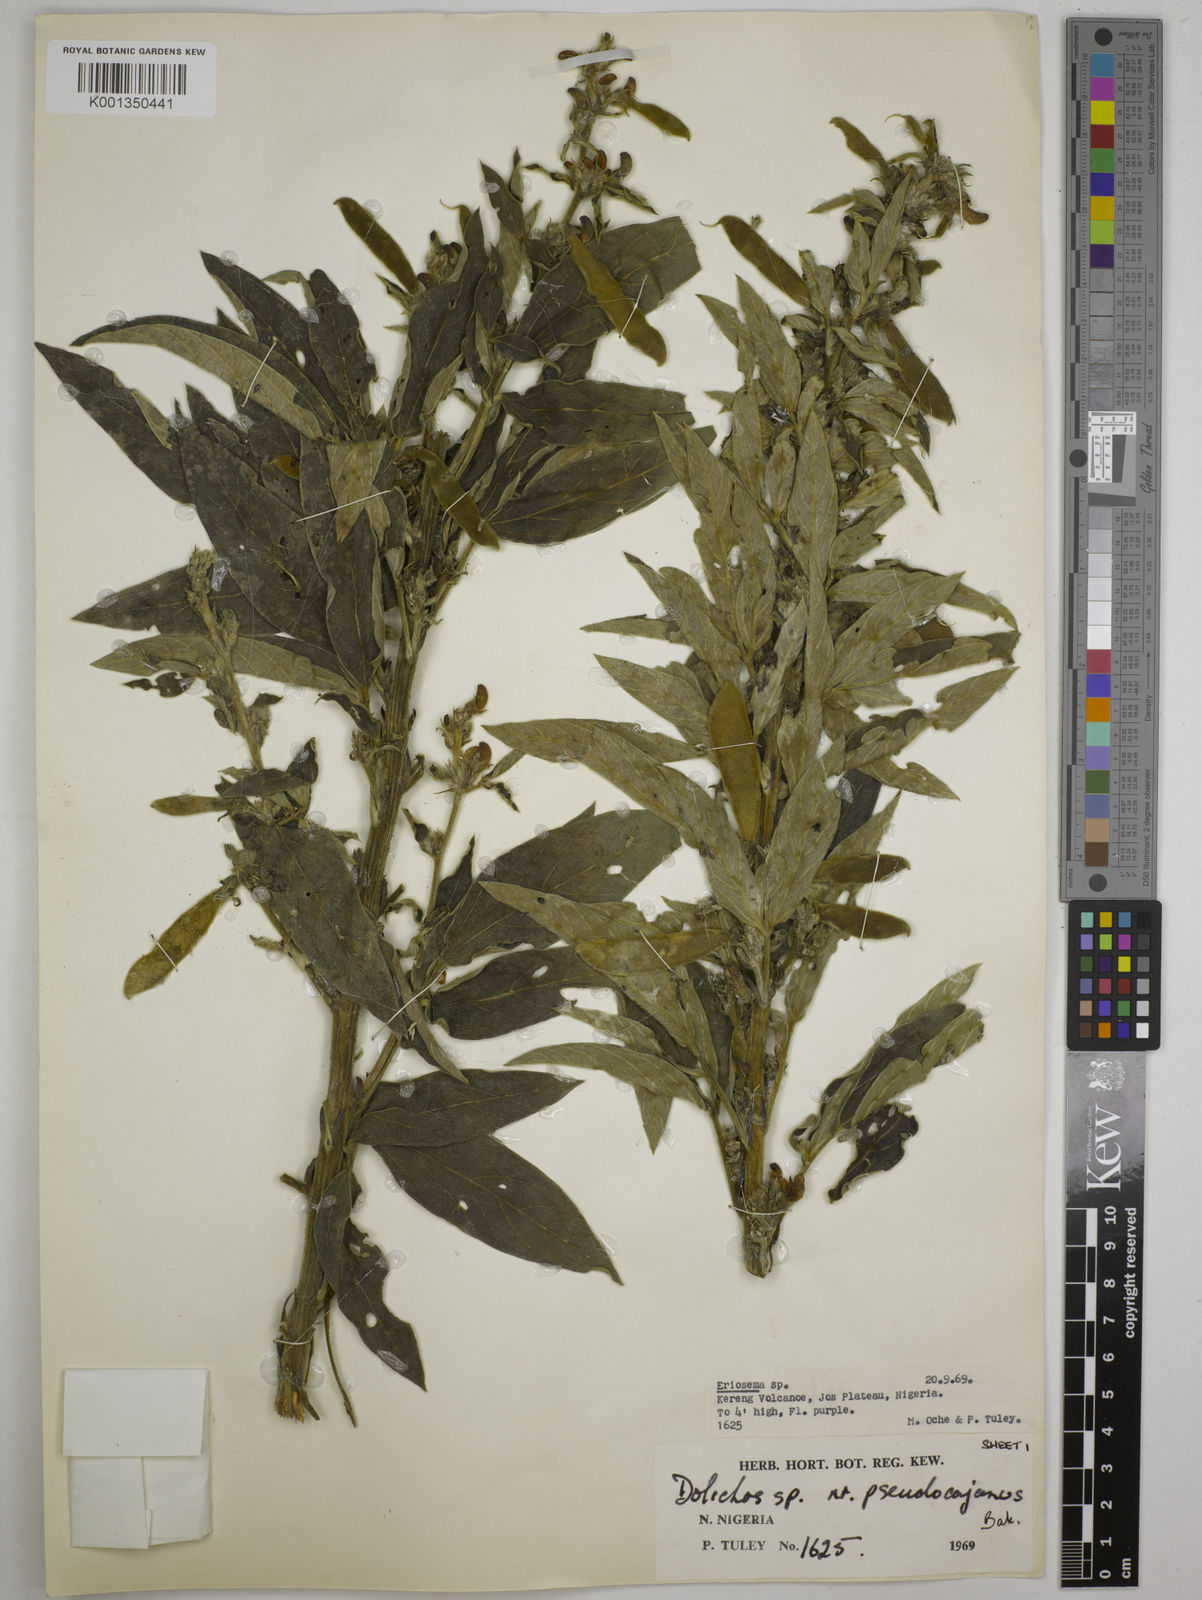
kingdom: Plantae
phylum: Tracheophyta
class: Magnoliopsida
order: Fabales
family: Fabaceae
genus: Dolichos
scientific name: Dolichos pseudocajanus
